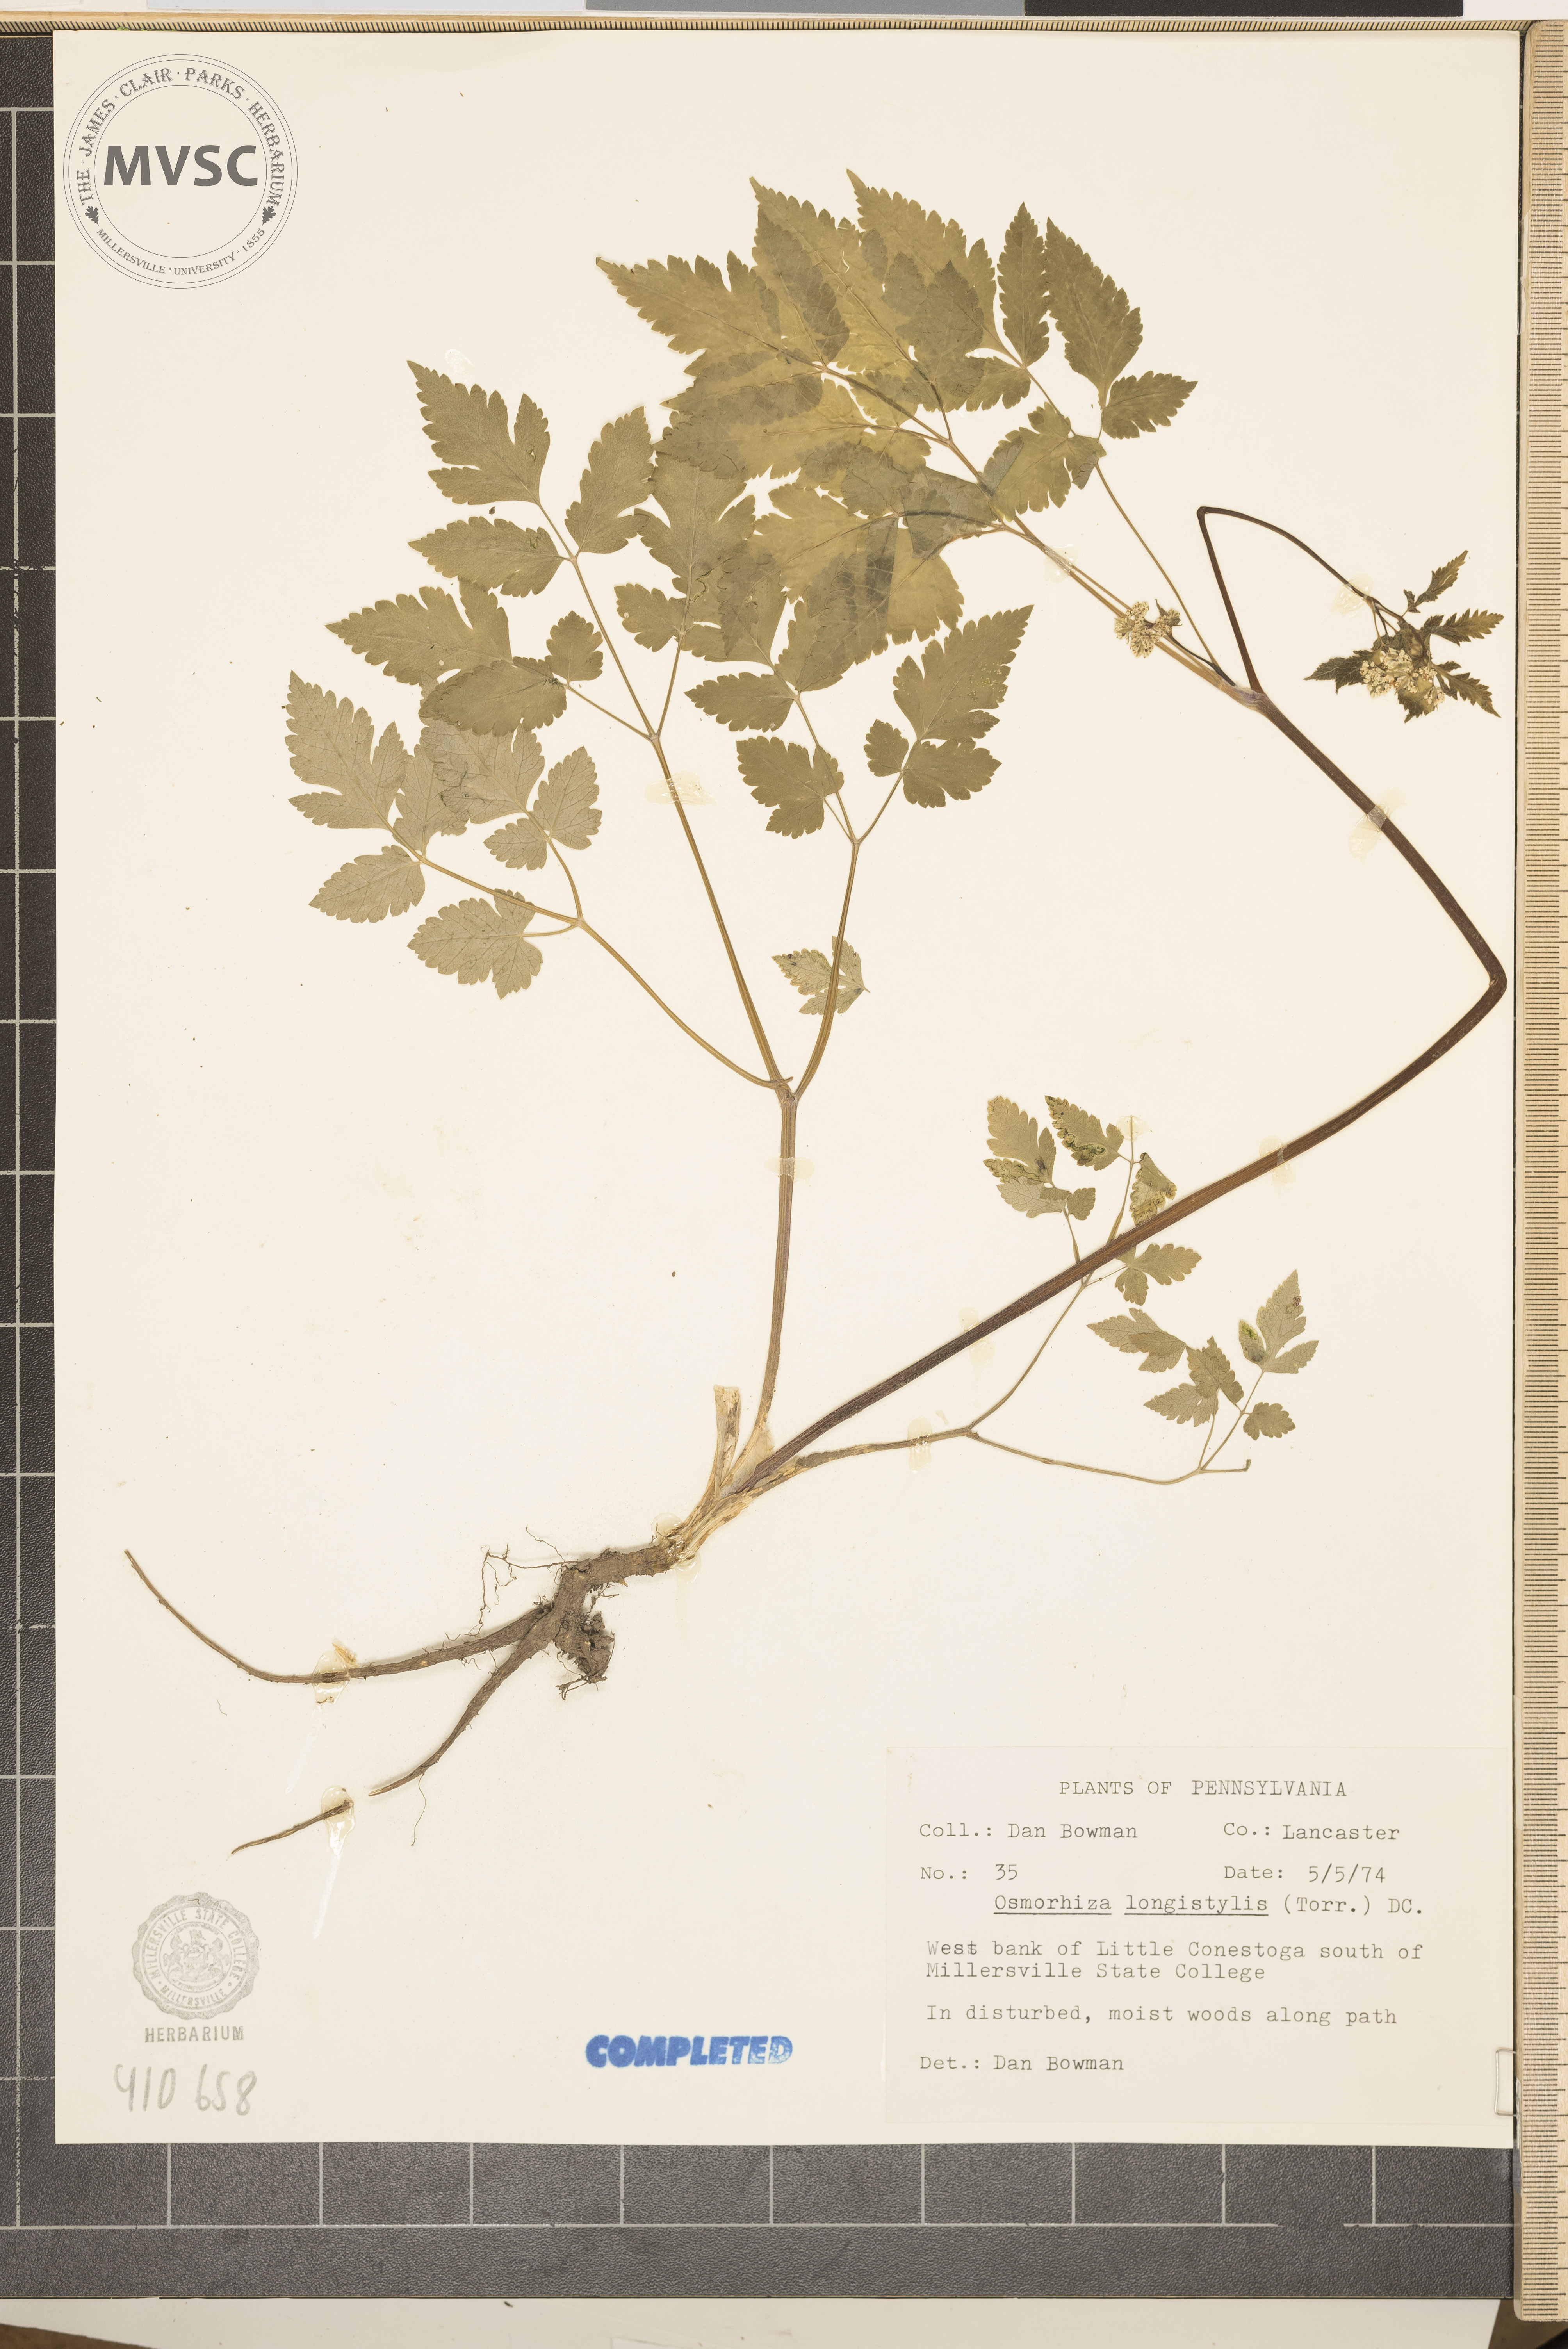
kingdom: Plantae
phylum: Tracheophyta
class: Magnoliopsida
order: Apiales
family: Apiaceae
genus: Osmorhiza
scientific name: Osmorhiza longistylis
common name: Smooth sweet cicely
